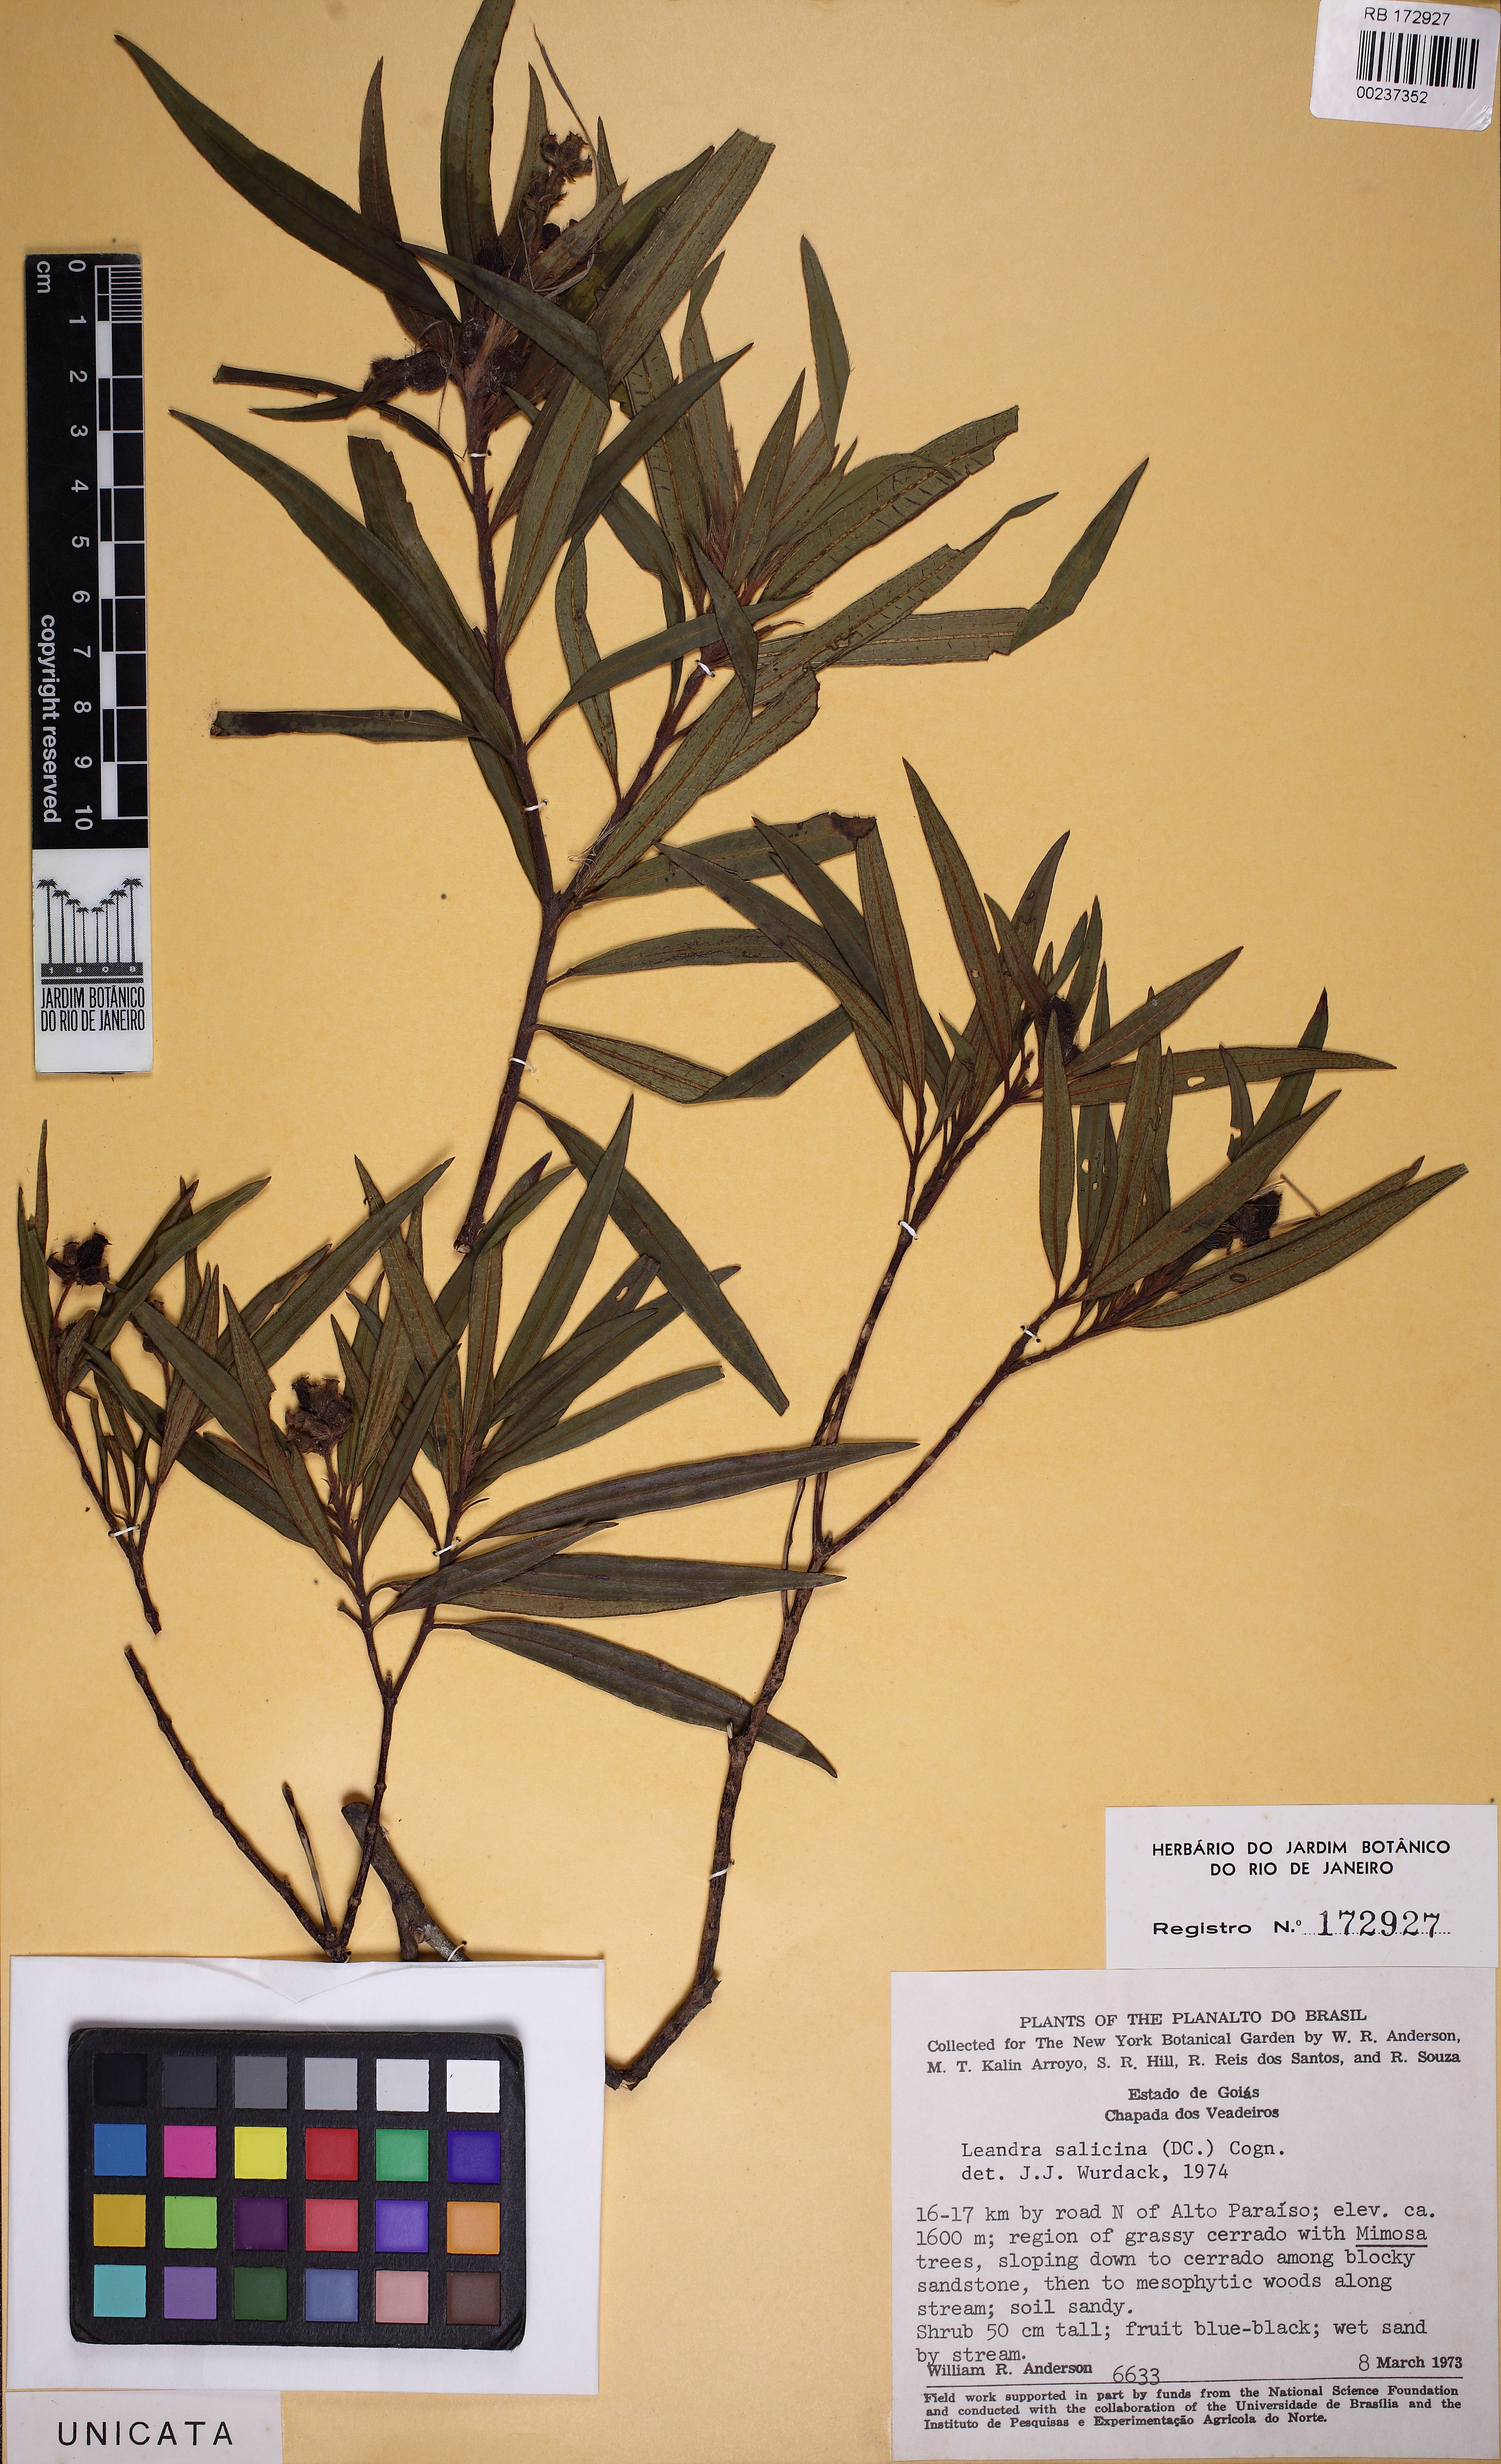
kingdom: Plantae
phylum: Tracheophyta
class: Magnoliopsida
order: Myrtales
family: Melastomataceae
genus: Miconia
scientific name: Miconia salicina
